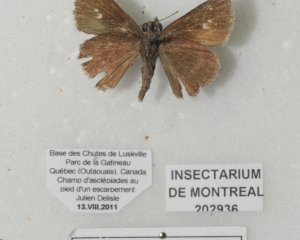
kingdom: Animalia
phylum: Arthropoda
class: Insecta
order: Lepidoptera
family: Hesperiidae
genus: Euphyes
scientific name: Euphyes vestris
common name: Dun Skipper
